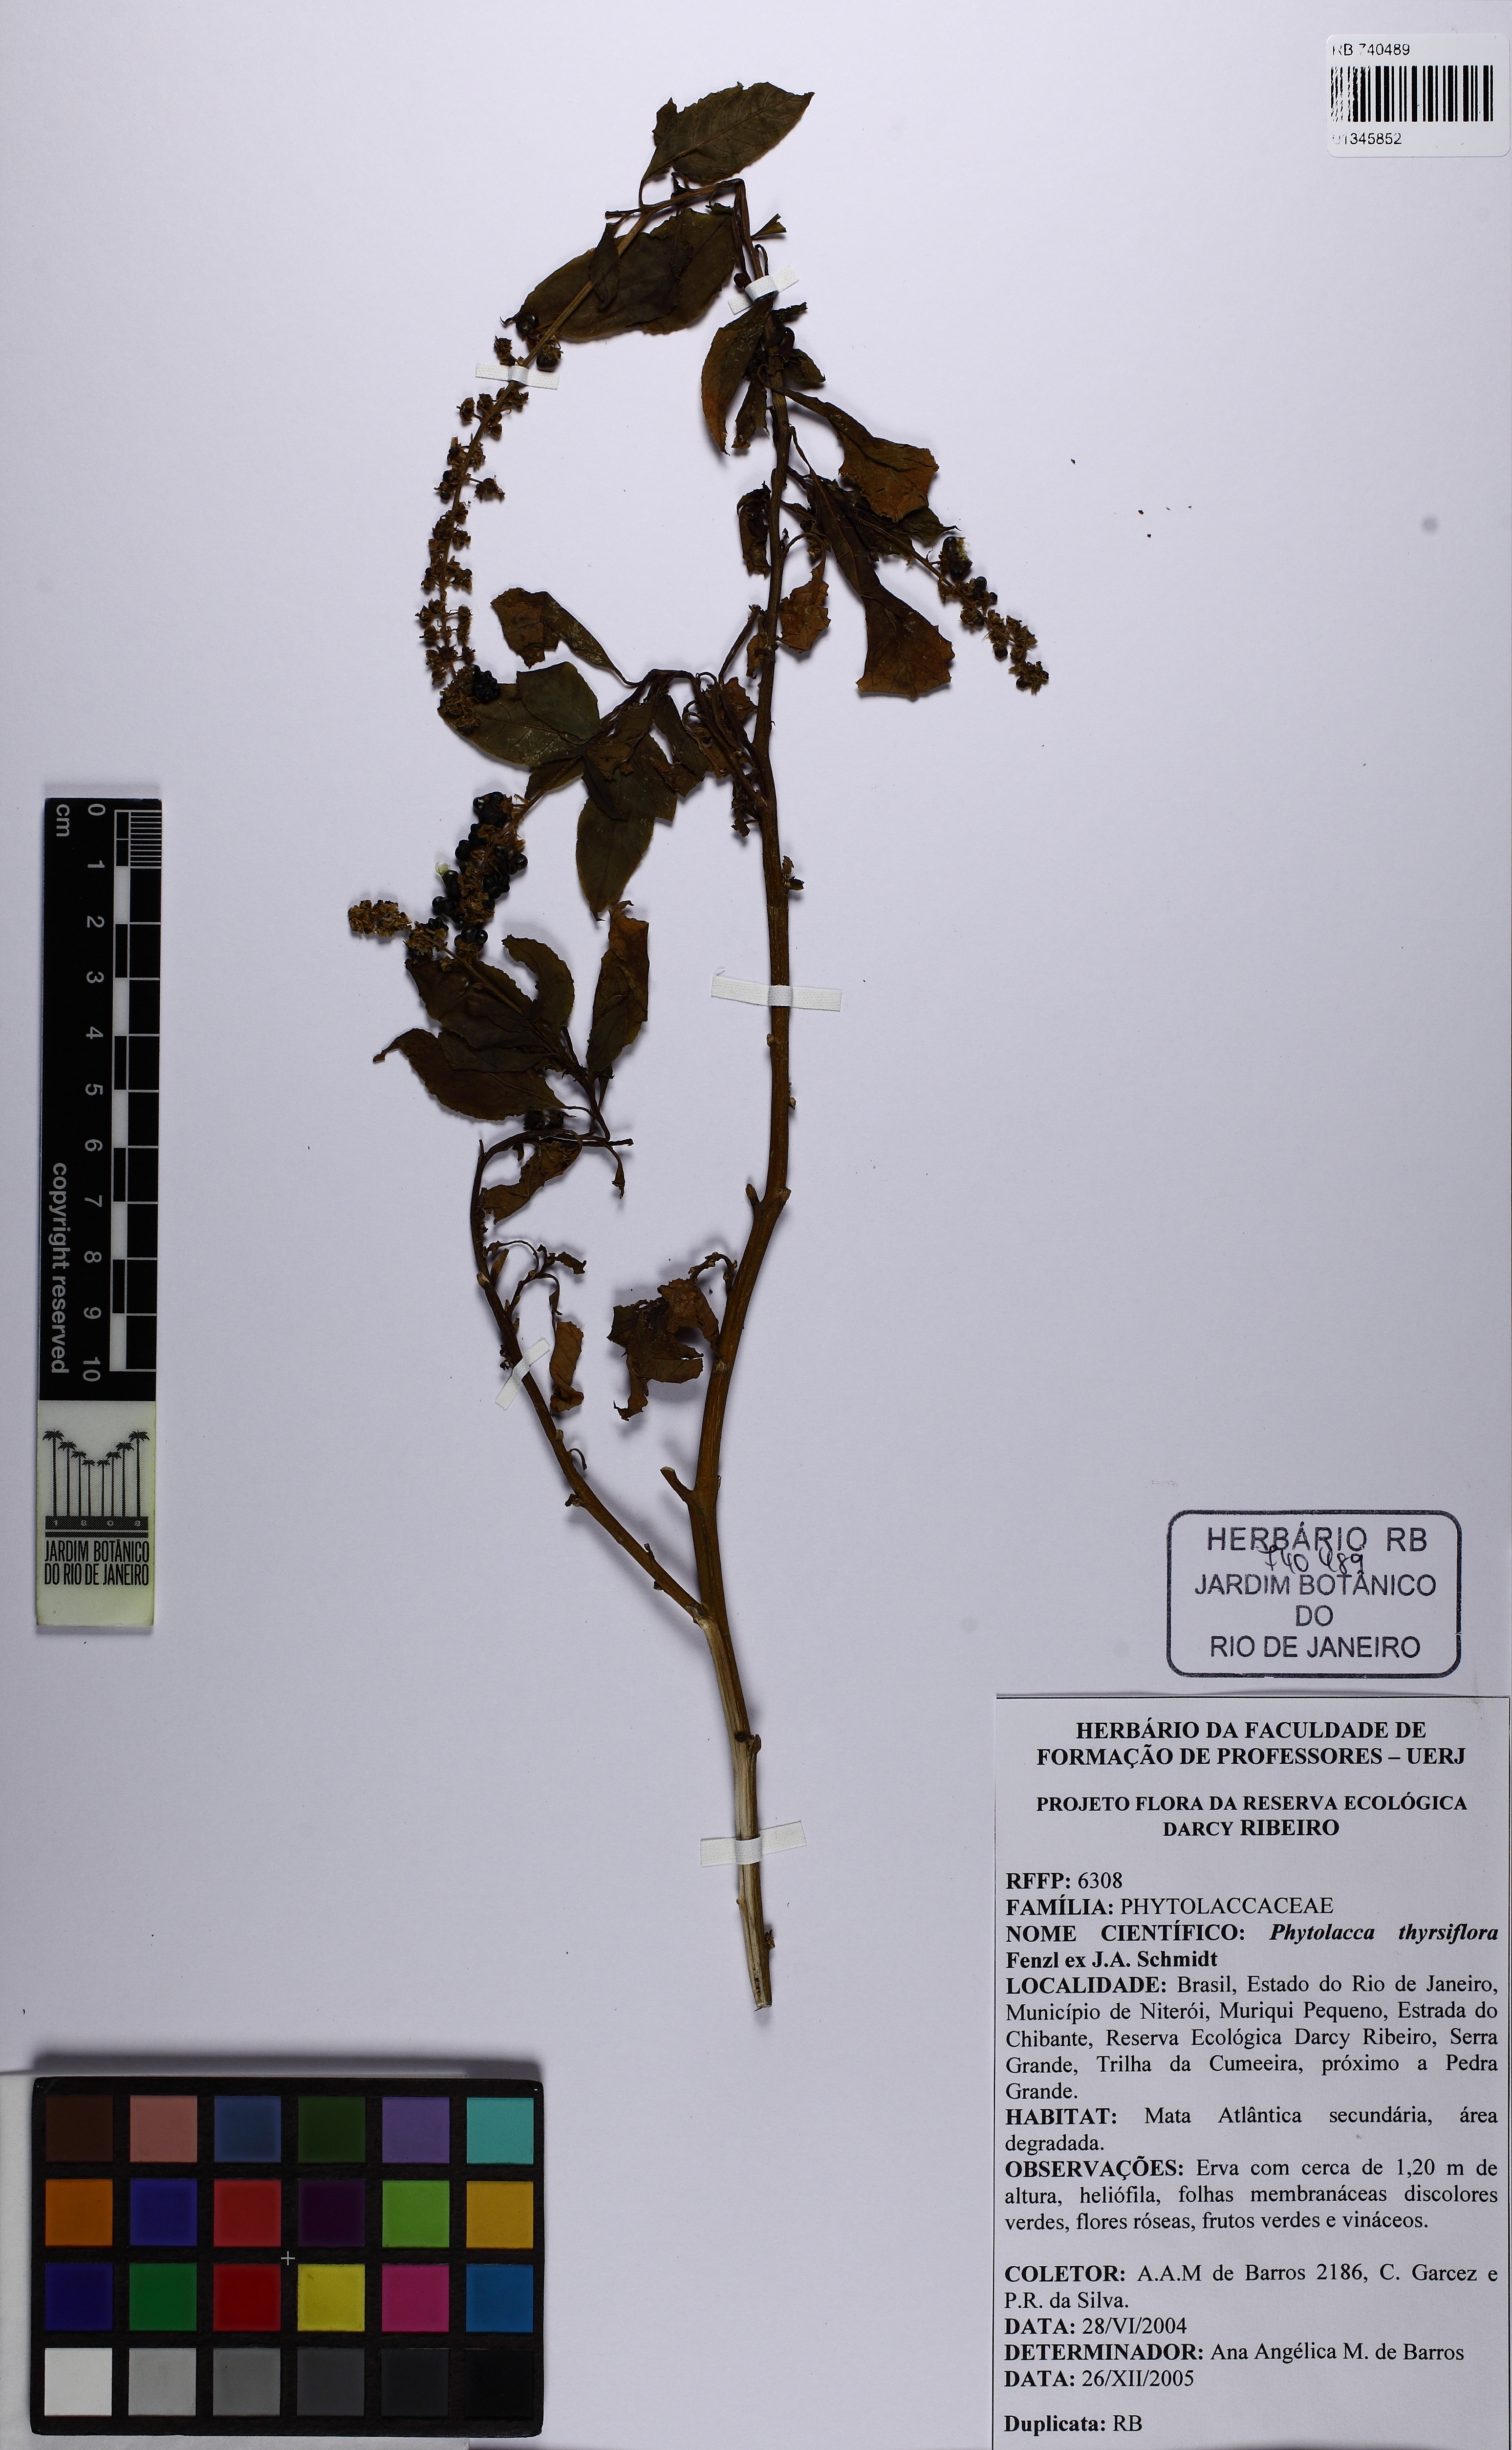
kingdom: Plantae
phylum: Tracheophyta
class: Magnoliopsida
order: Caryophyllales
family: Phytolaccaceae
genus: Phytolacca
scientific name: Phytolacca thyrsiflora
